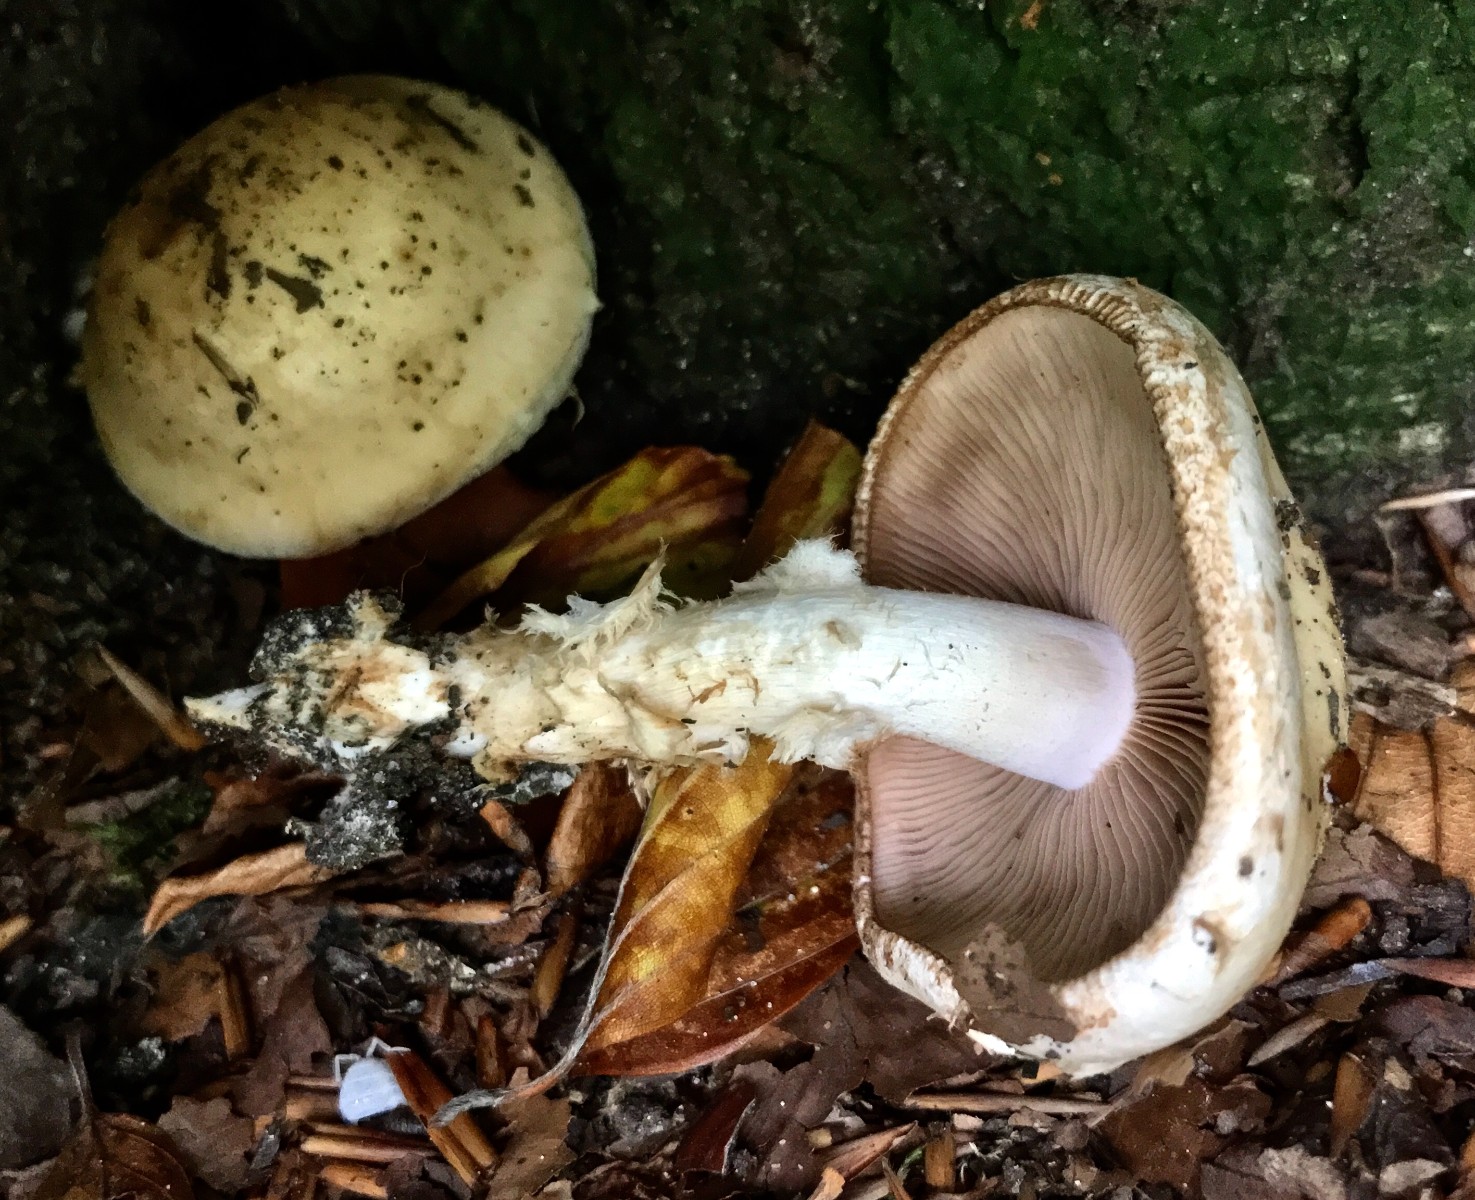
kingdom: Fungi
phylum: Basidiomycota
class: Agaricomycetes
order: Agaricales
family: Hymenogastraceae
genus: Hebeloma
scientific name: Hebeloma radicosum
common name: pælerods-tåreblad
